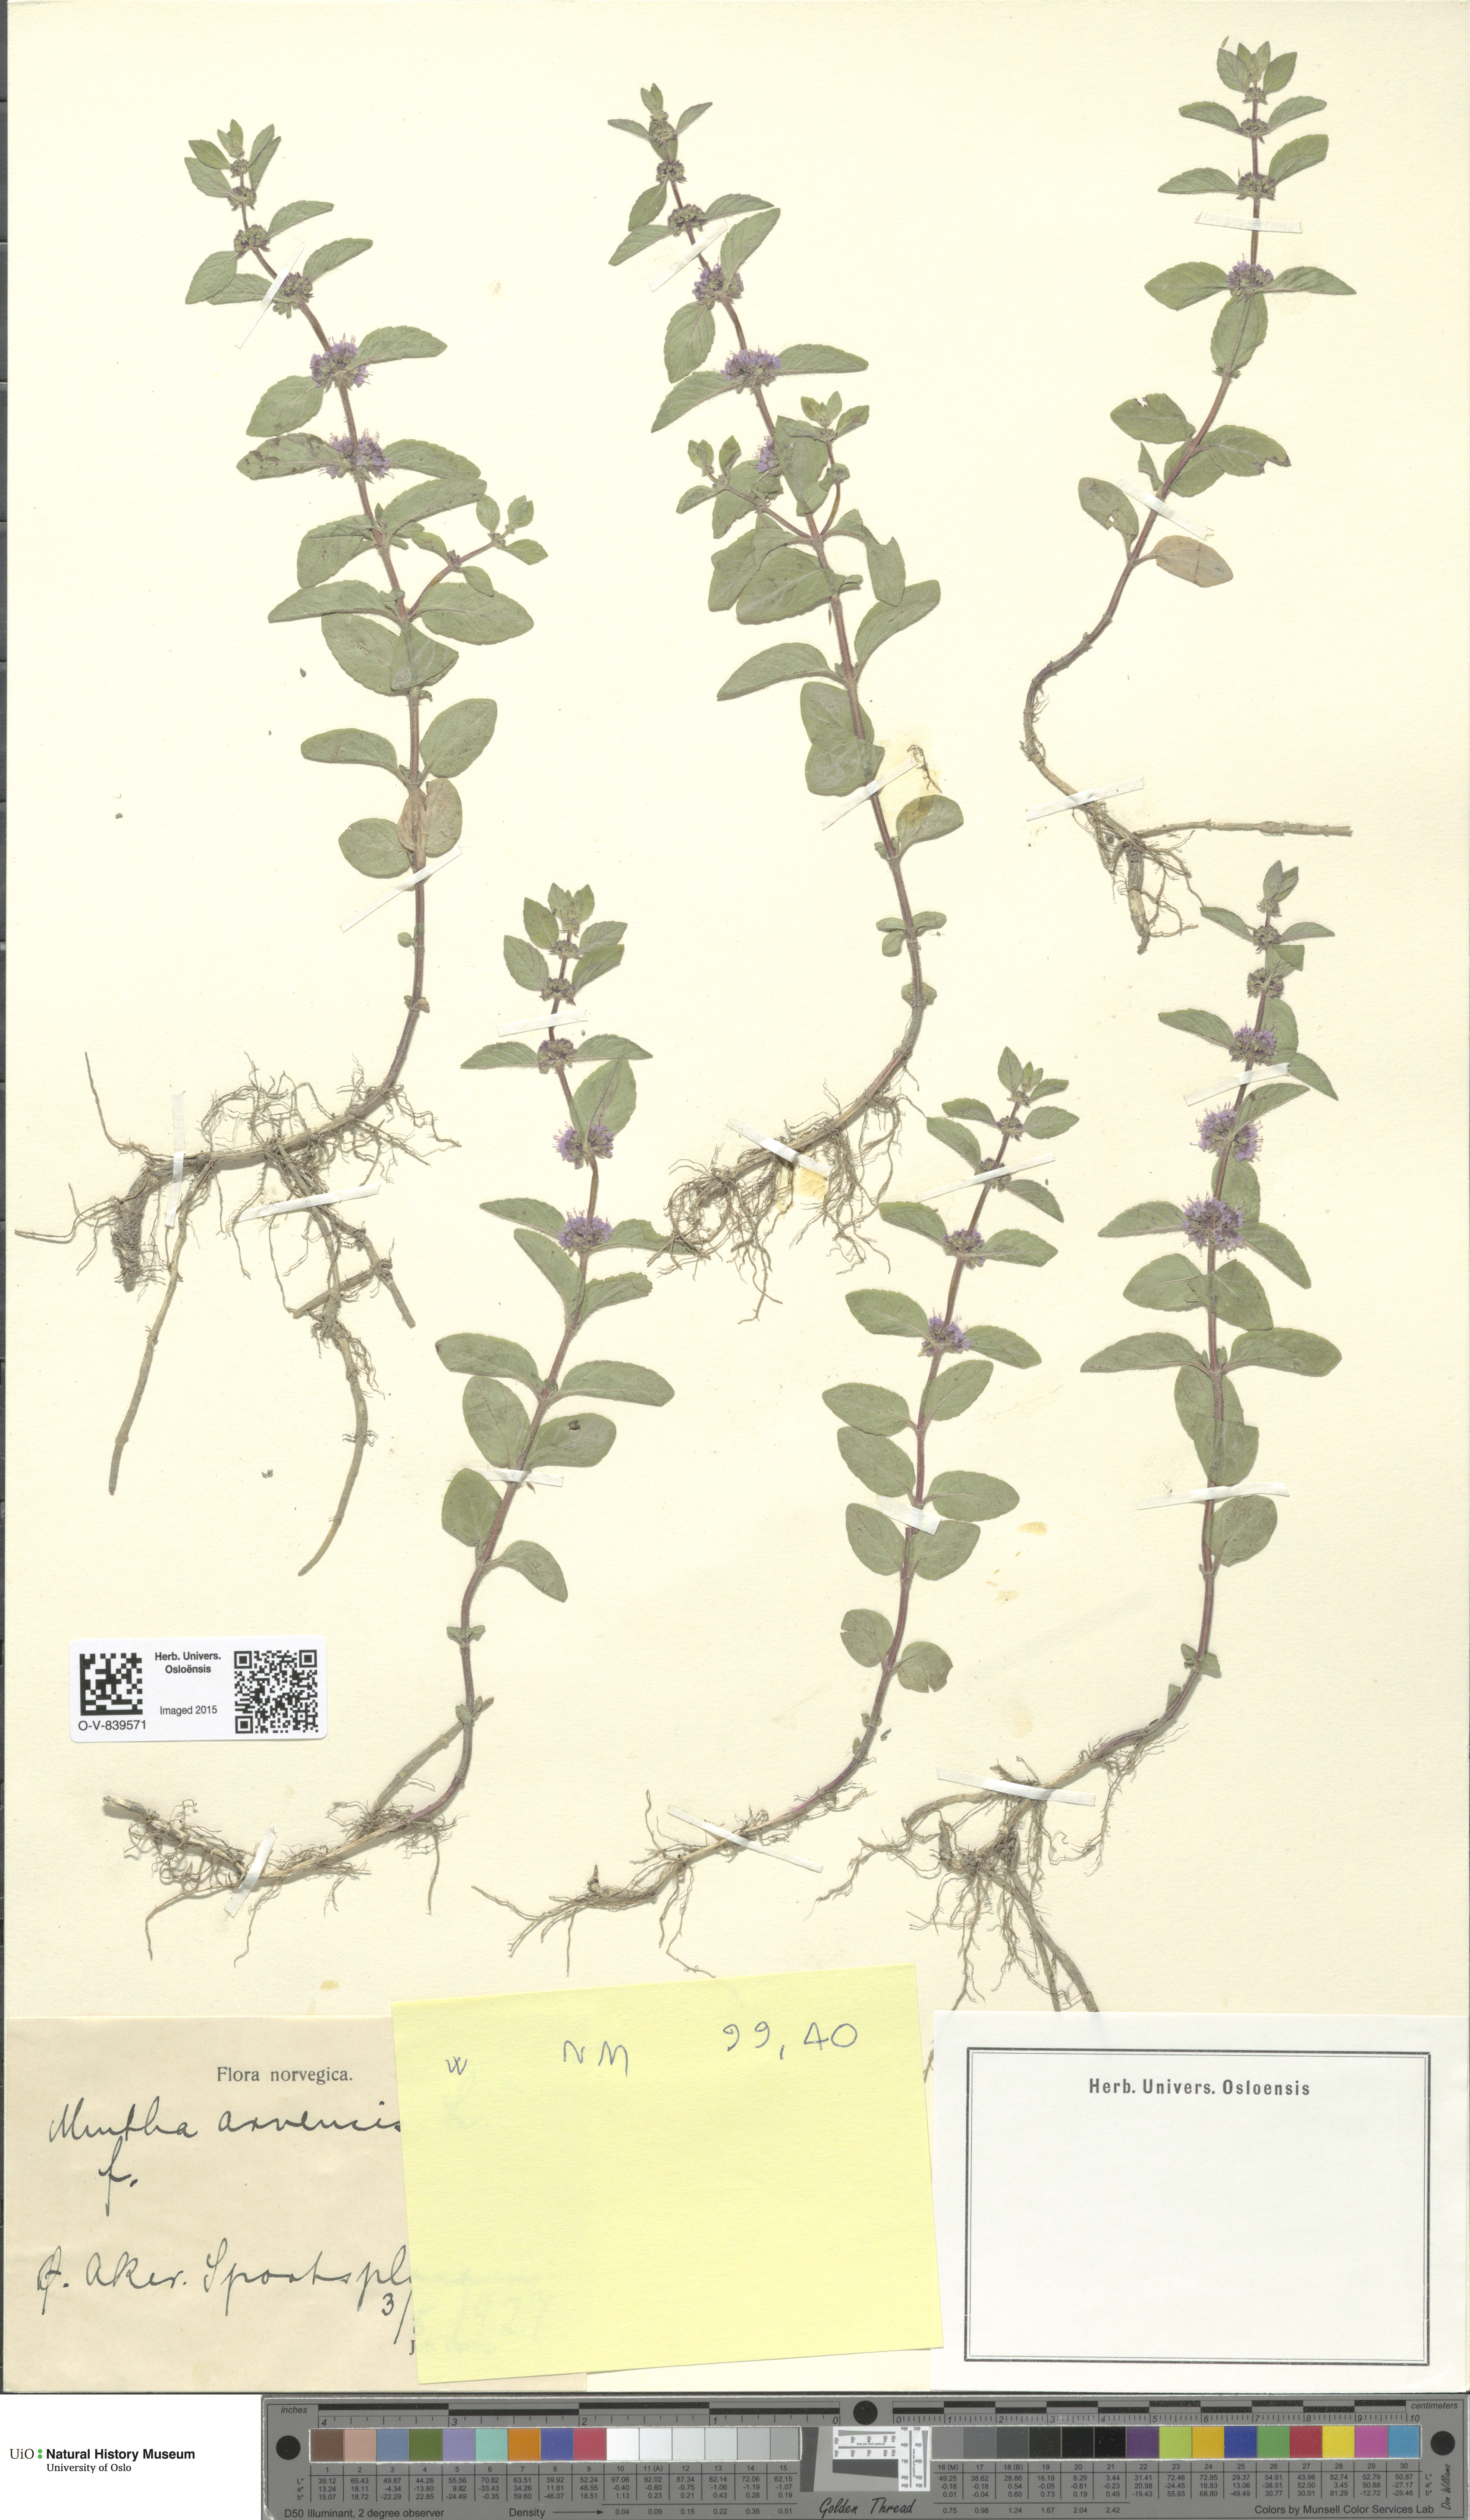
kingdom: Plantae
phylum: Tracheophyta
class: Magnoliopsida
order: Lamiales
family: Lamiaceae
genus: Mentha
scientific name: Mentha arvensis
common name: Corn mint
